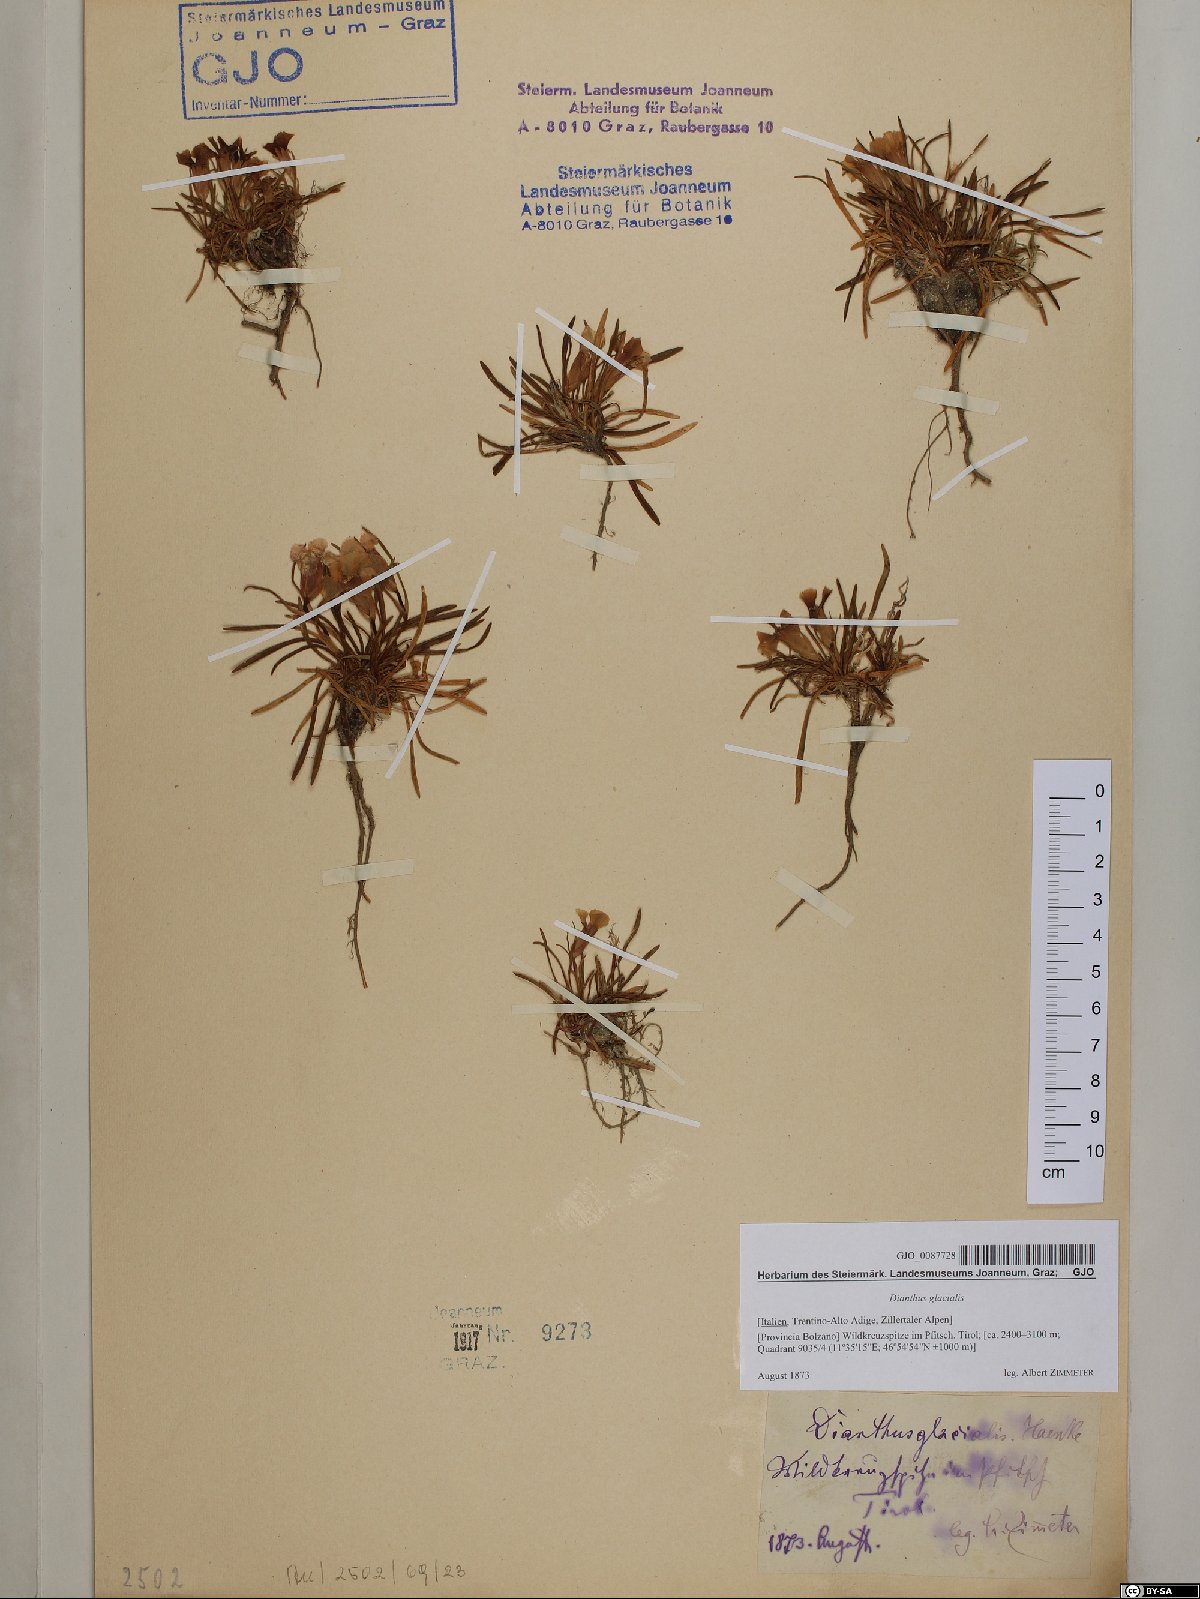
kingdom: Plantae
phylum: Tracheophyta
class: Magnoliopsida
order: Caryophyllales
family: Caryophyllaceae
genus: Dianthus
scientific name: Dianthus glacialis
